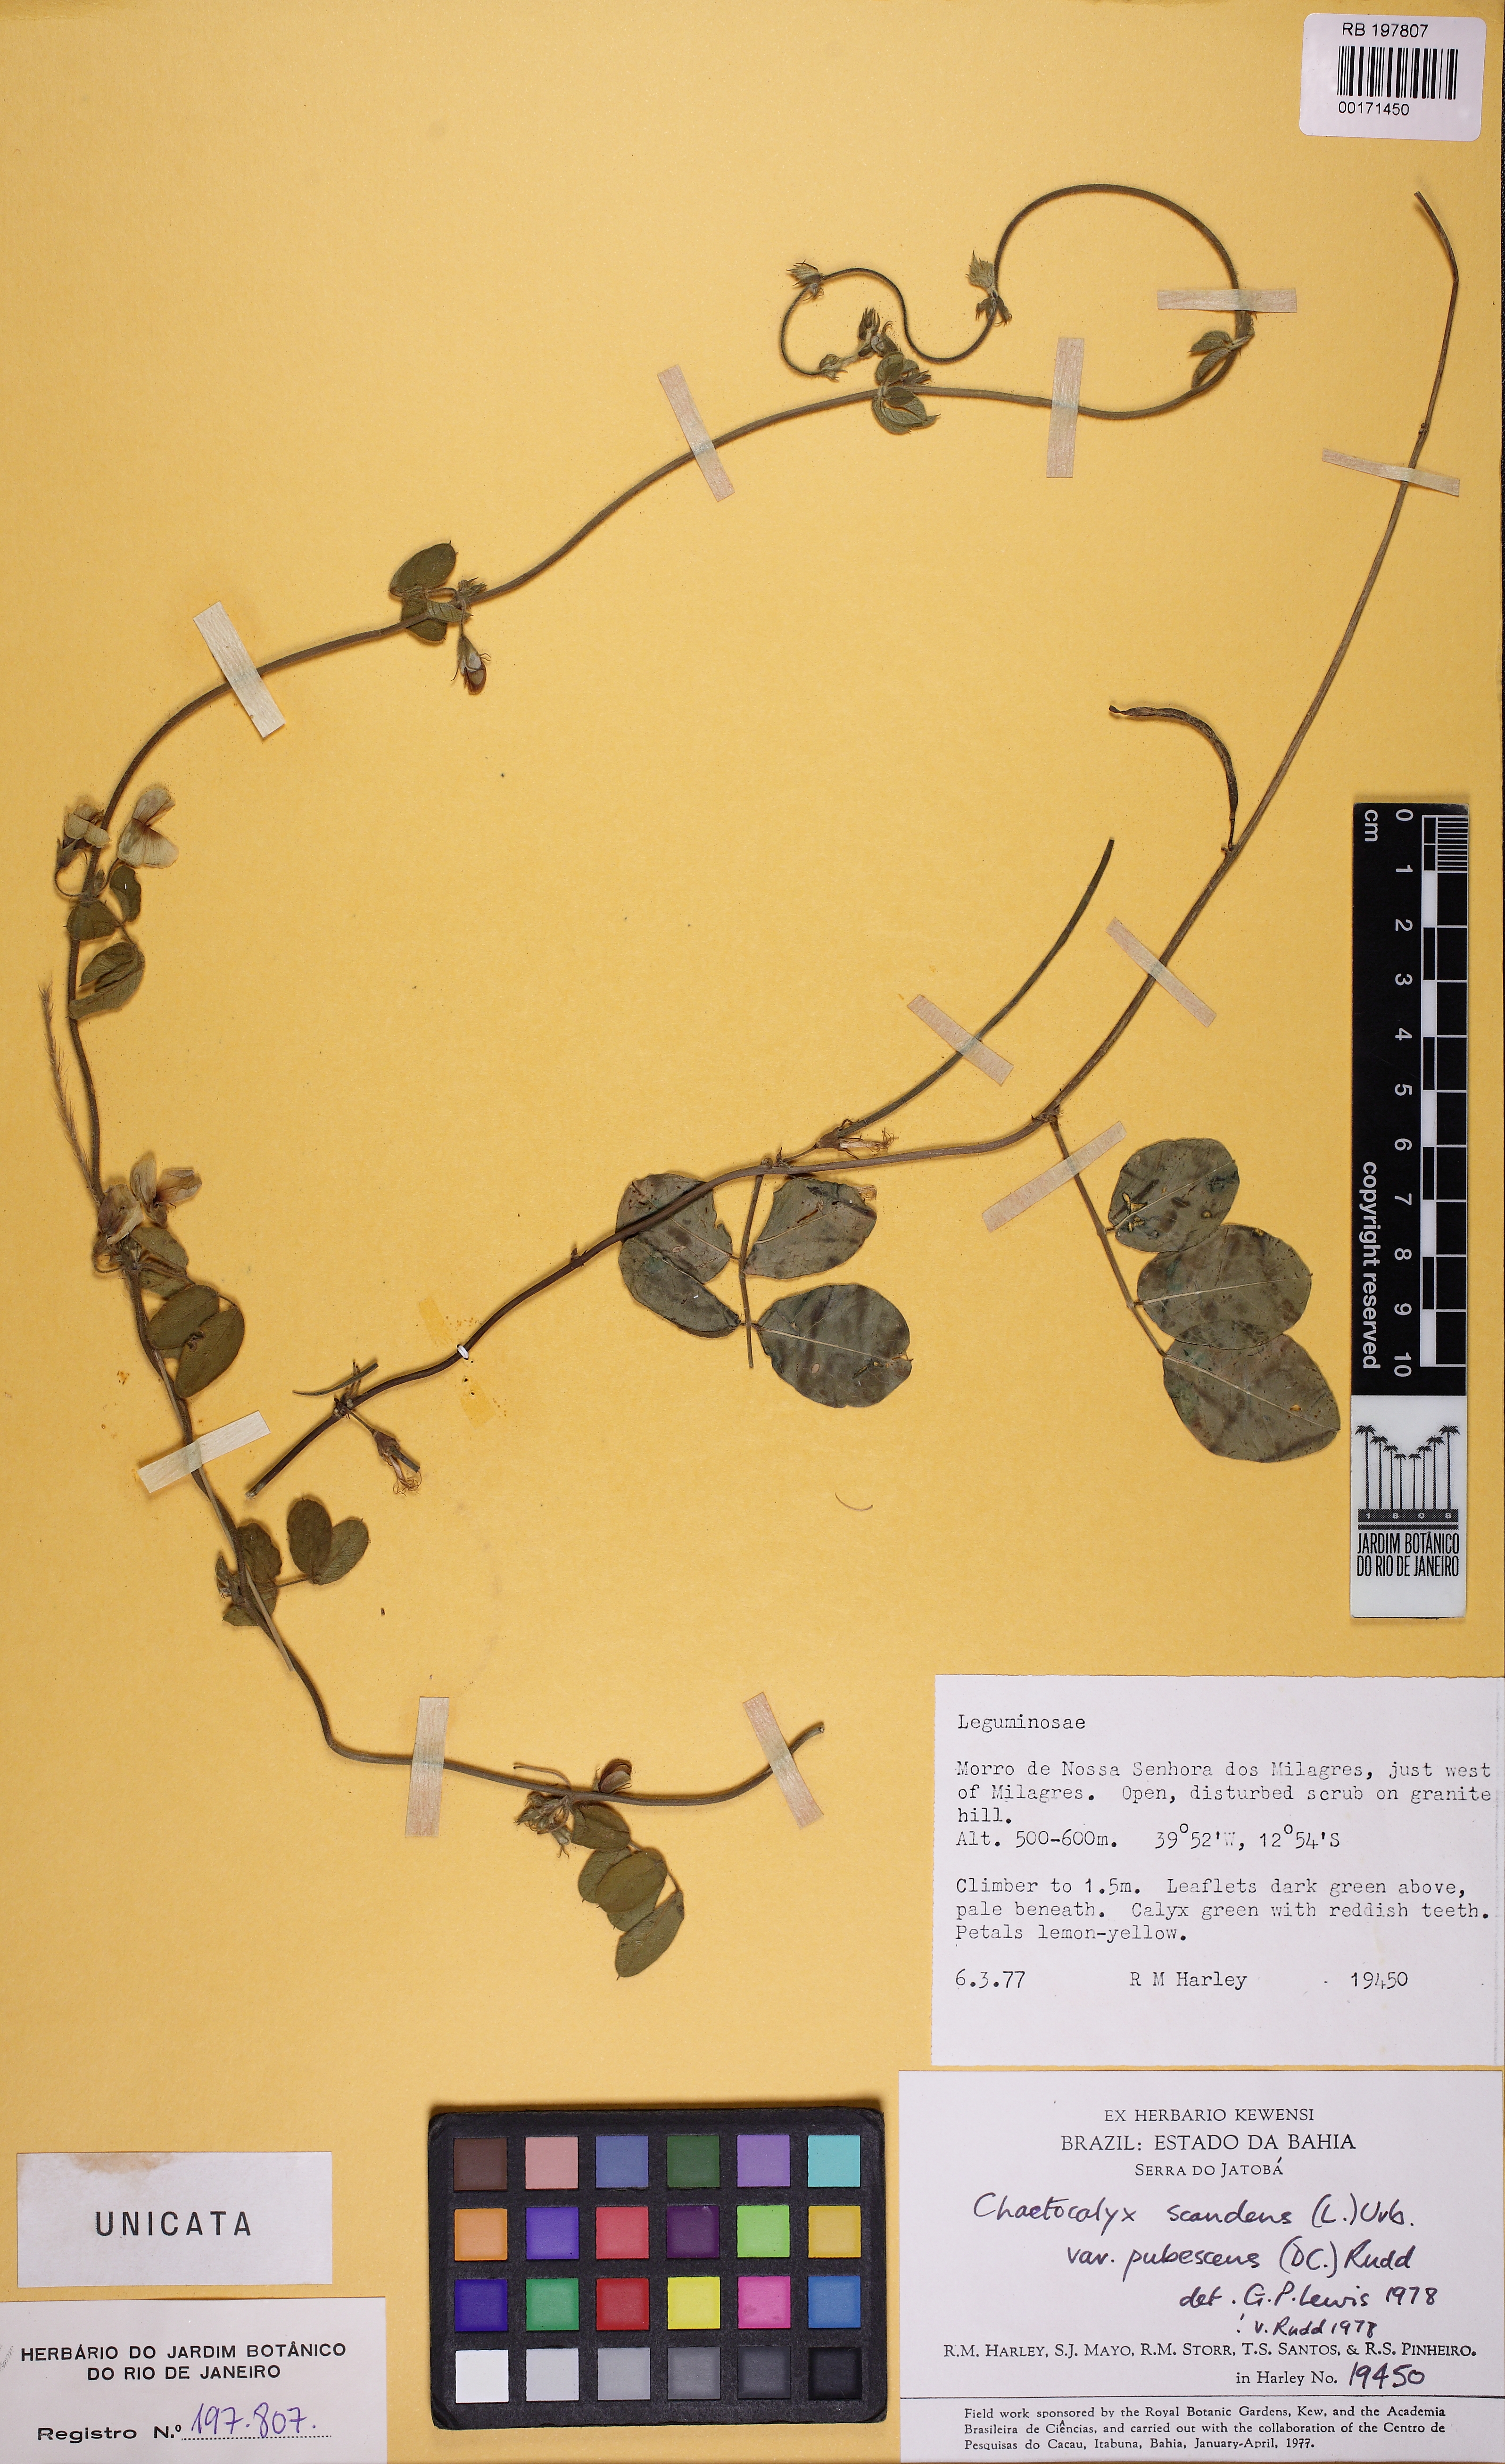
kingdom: Plantae
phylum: Tracheophyta
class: Magnoliopsida
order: Fabales
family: Fabaceae
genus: Nissolia
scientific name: Nissolia vincentina
